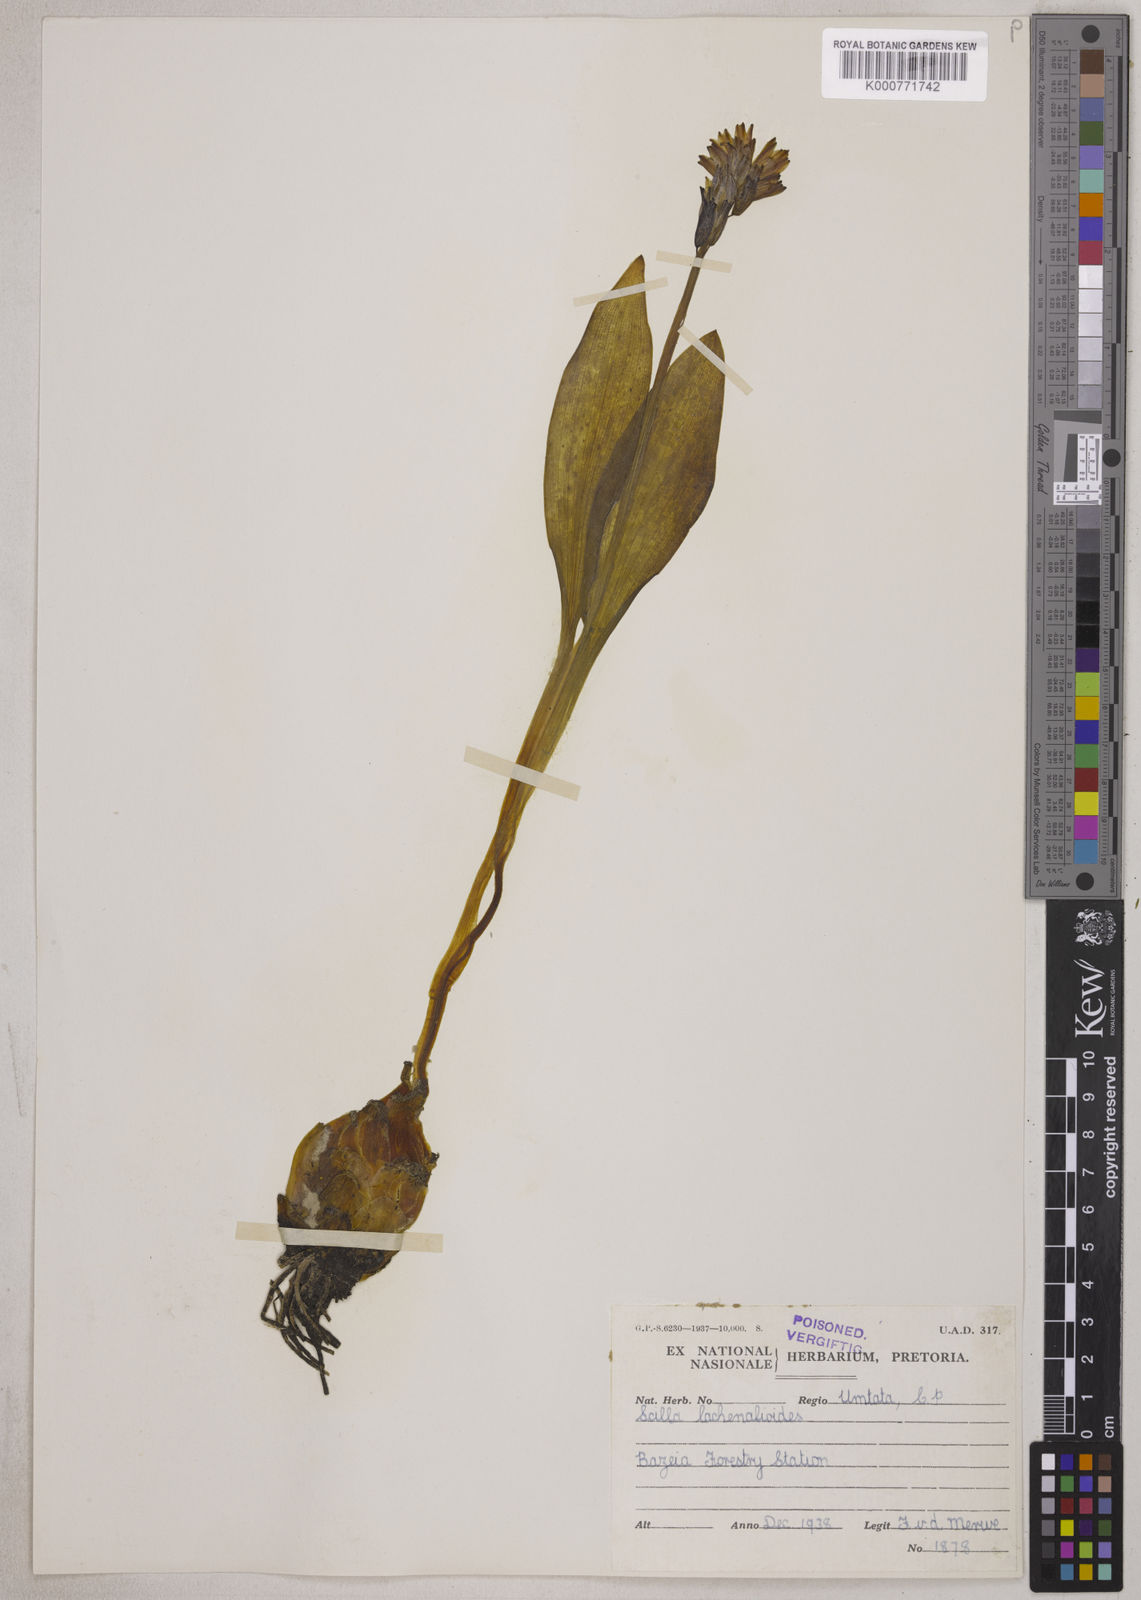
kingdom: Plantae
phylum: Tracheophyta
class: Liliopsida
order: Asparagales
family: Asparagaceae
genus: Resnova
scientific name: Resnova lachenalioides
